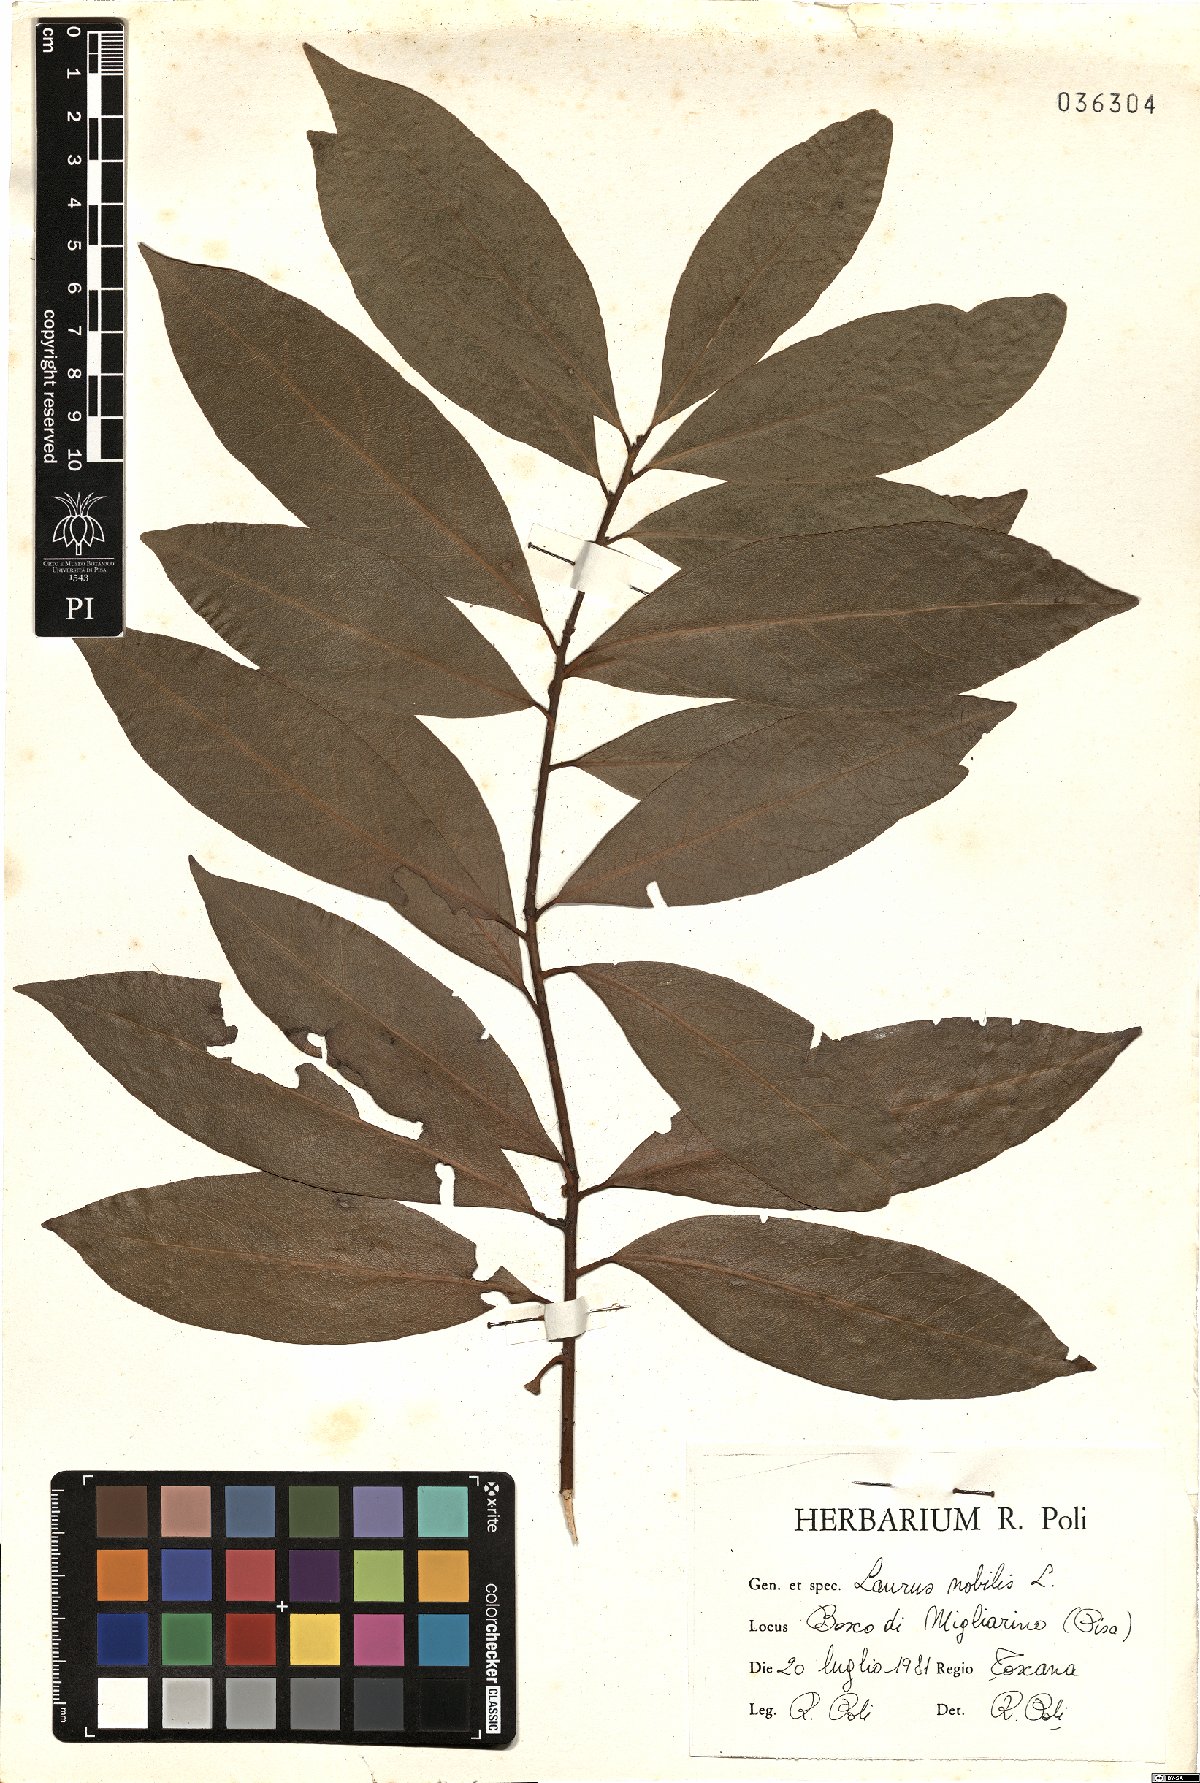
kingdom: Plantae
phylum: Tracheophyta
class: Magnoliopsida
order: Laurales
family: Lauraceae
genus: Laurus
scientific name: Laurus nobilis
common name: Bay
